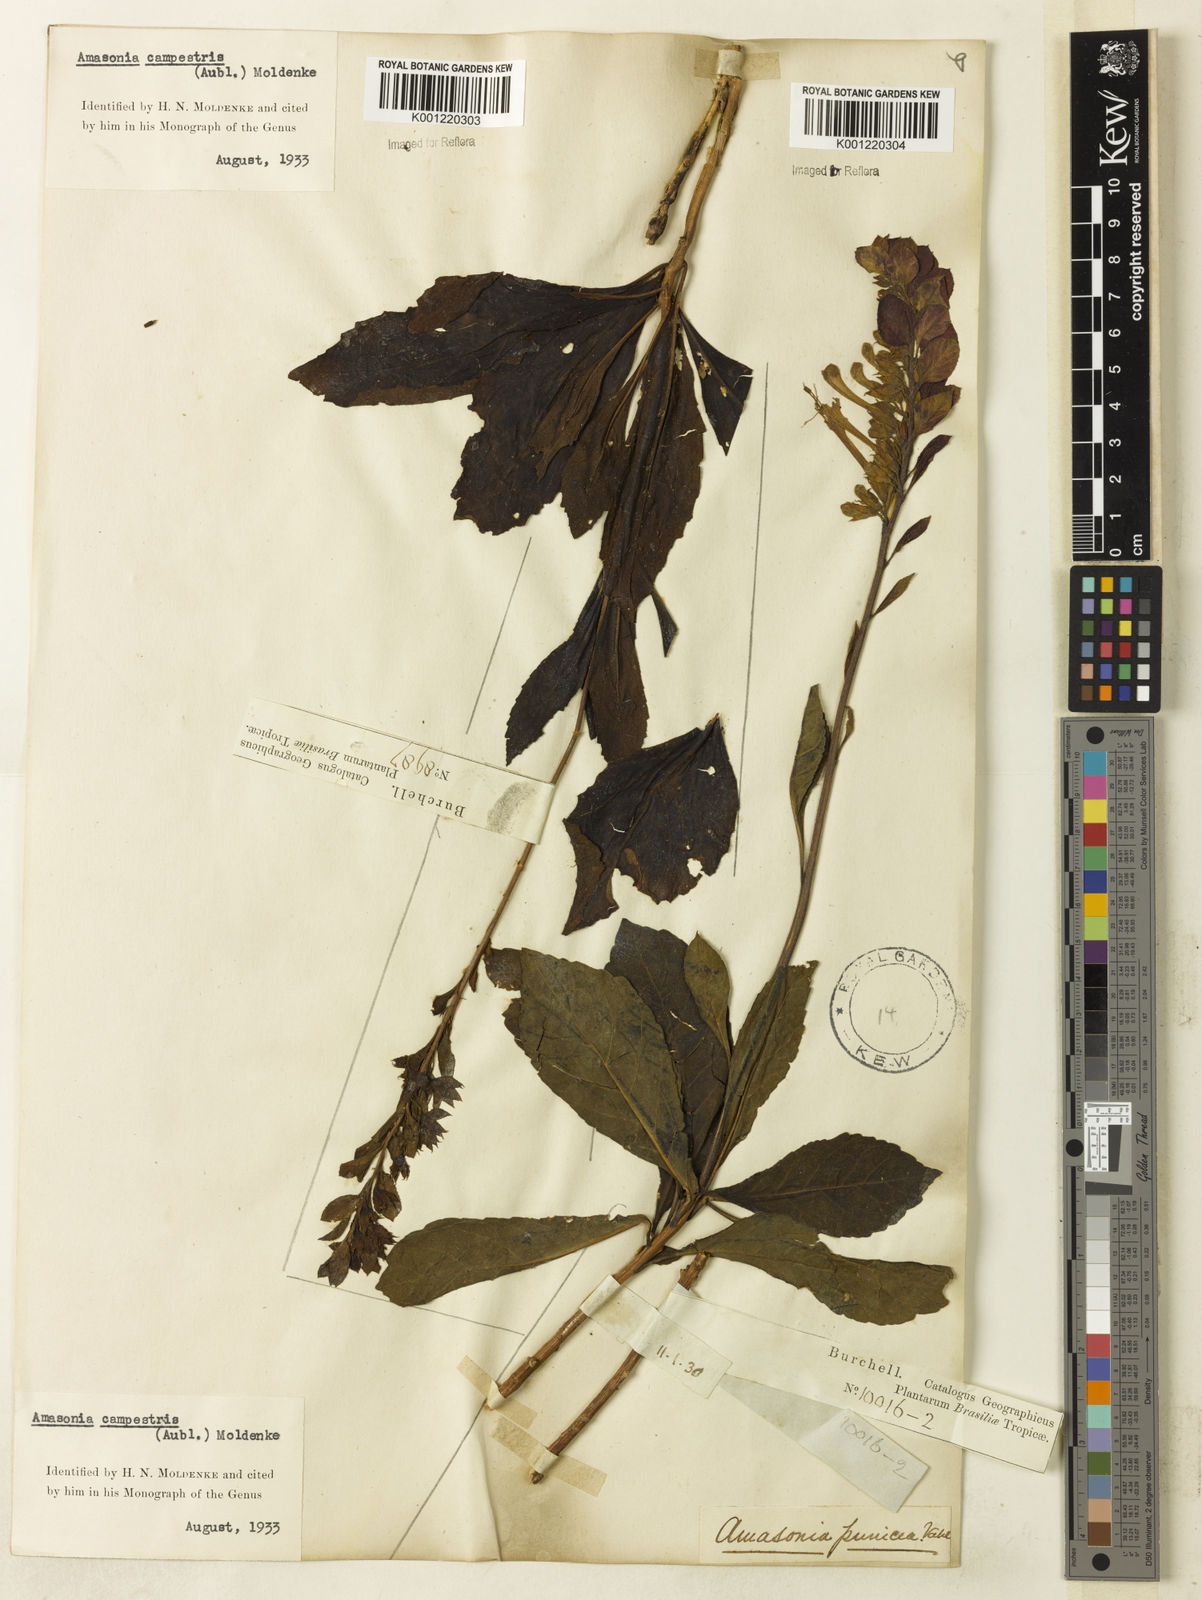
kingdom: Plantae
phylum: Tracheophyta
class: Magnoliopsida
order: Lamiales
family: Lamiaceae
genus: Amasonia
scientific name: Amasonia campestris
